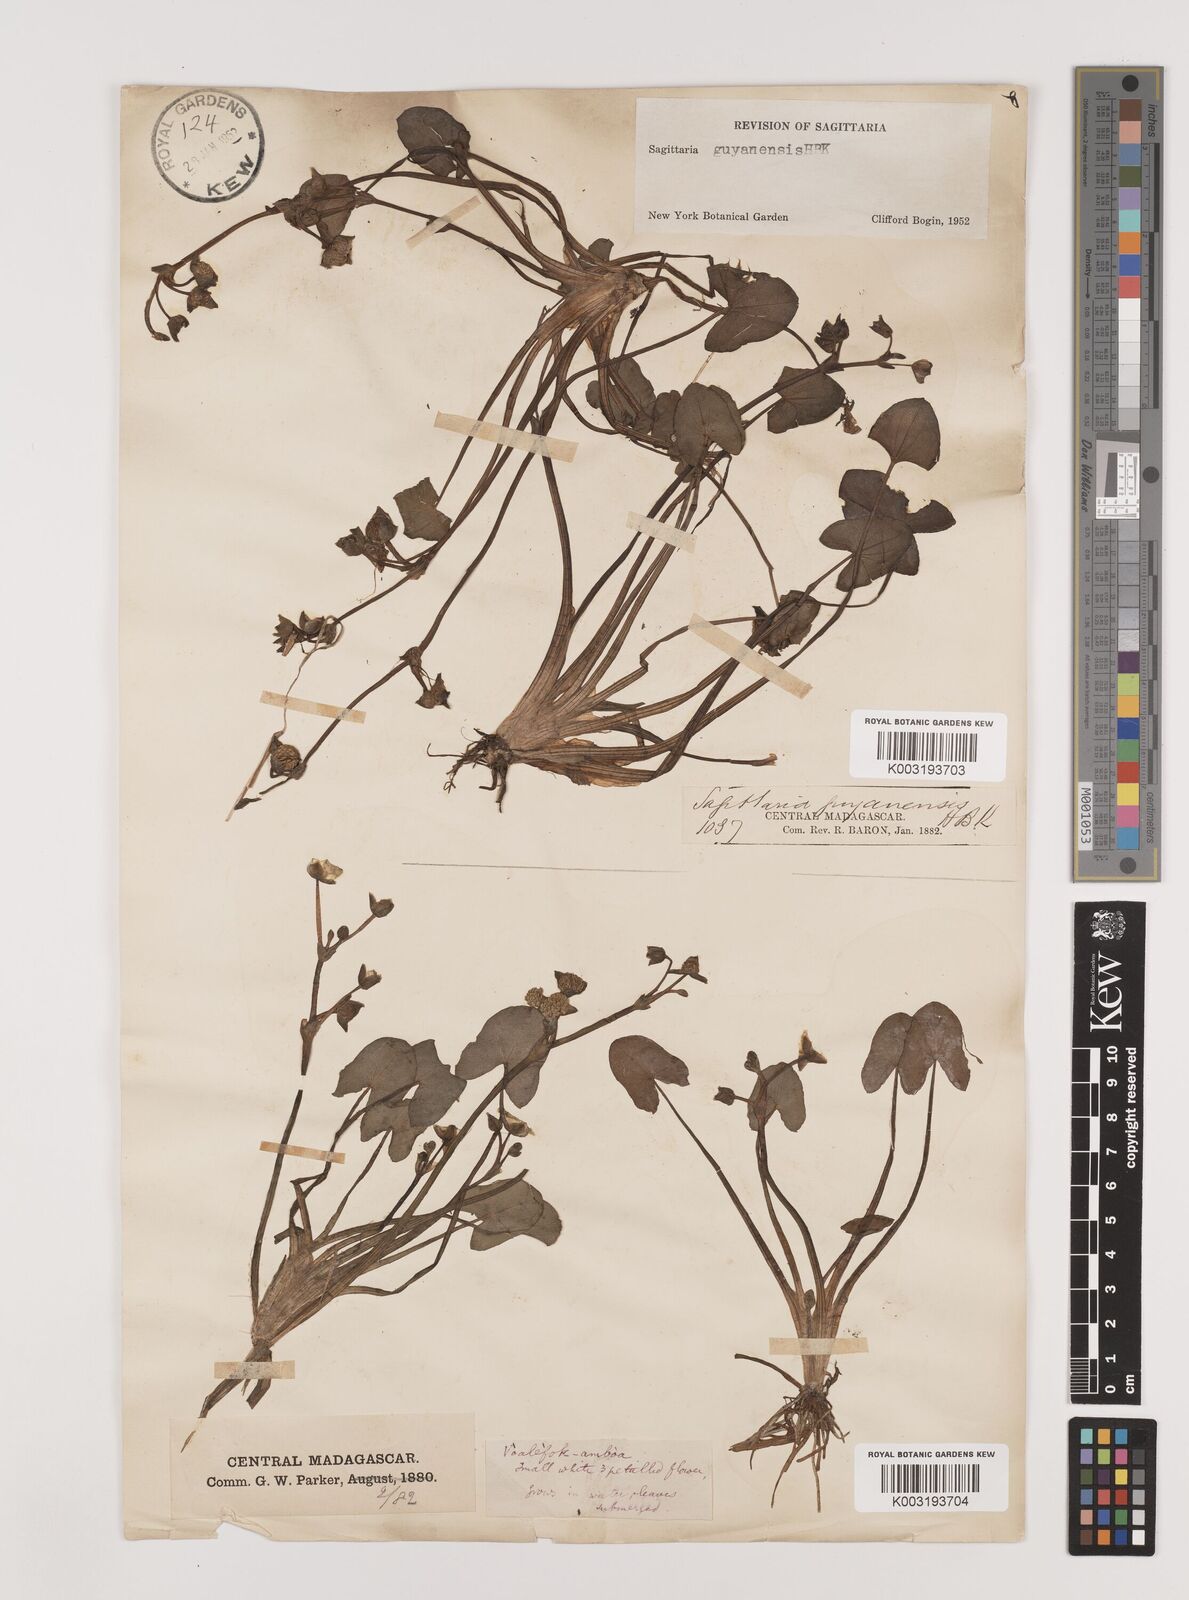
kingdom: Plantae
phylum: Tracheophyta
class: Liliopsida
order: Alismatales
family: Alismataceae
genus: Sagittaria
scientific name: Sagittaria guayanensis
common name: Guyanese arrowhead
